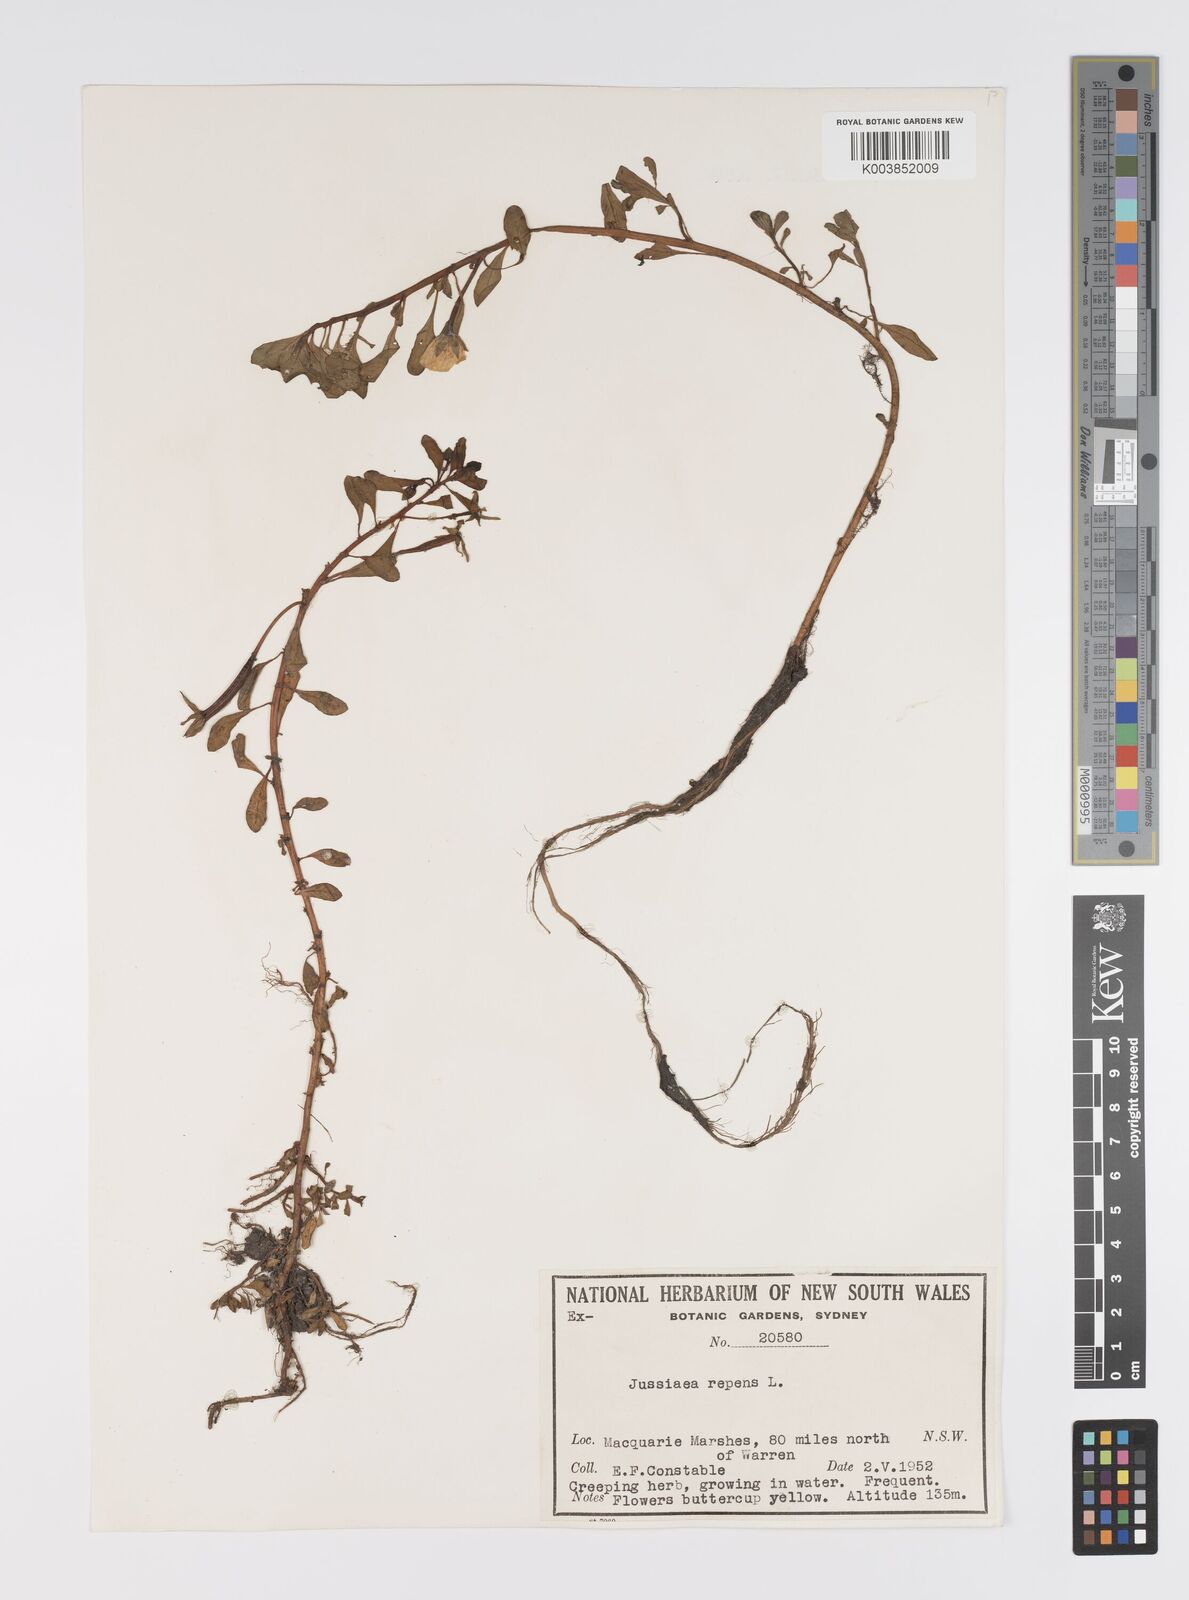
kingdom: Plantae
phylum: Tracheophyta
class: Magnoliopsida
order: Myrtales
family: Onagraceae
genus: Ludwigia
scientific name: Ludwigia peploides
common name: Floating primrose-willow
